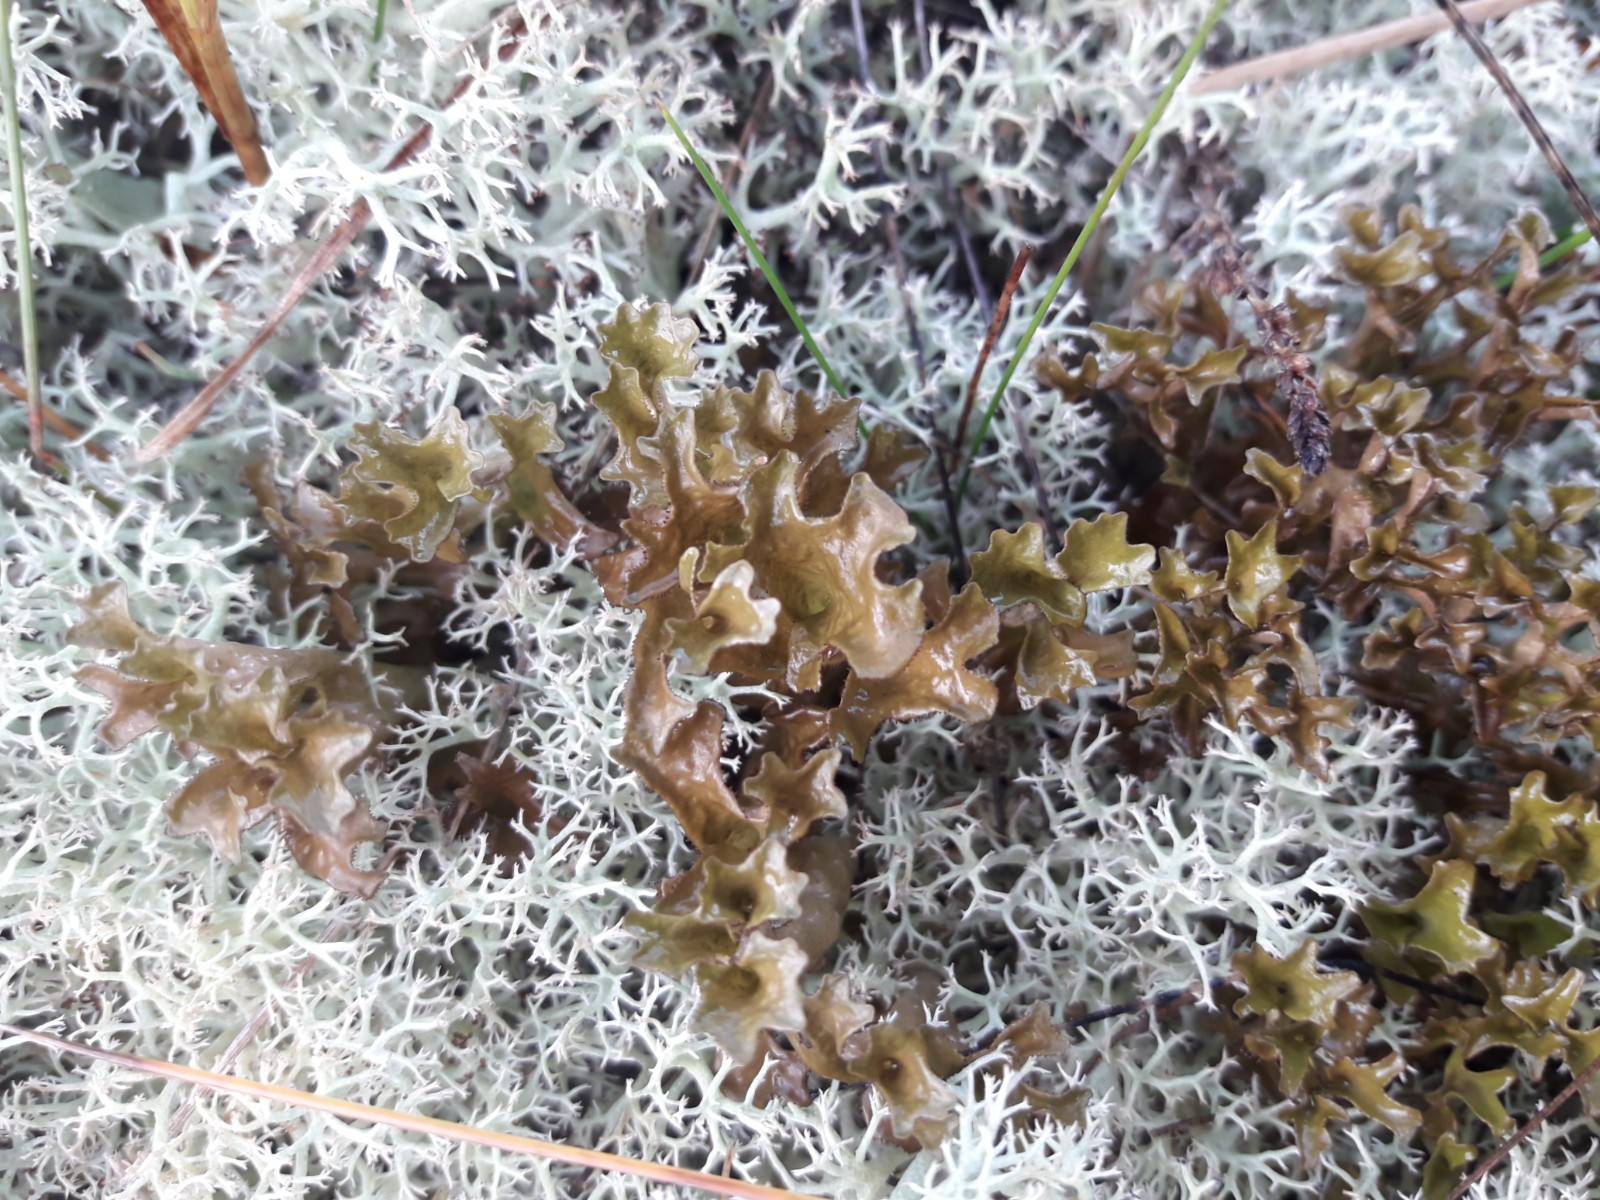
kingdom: Fungi
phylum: Ascomycota
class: Lecanoromycetes
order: Lecanorales
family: Parmeliaceae
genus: Cetraria
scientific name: Cetraria islandica
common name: islandsk kruslav
